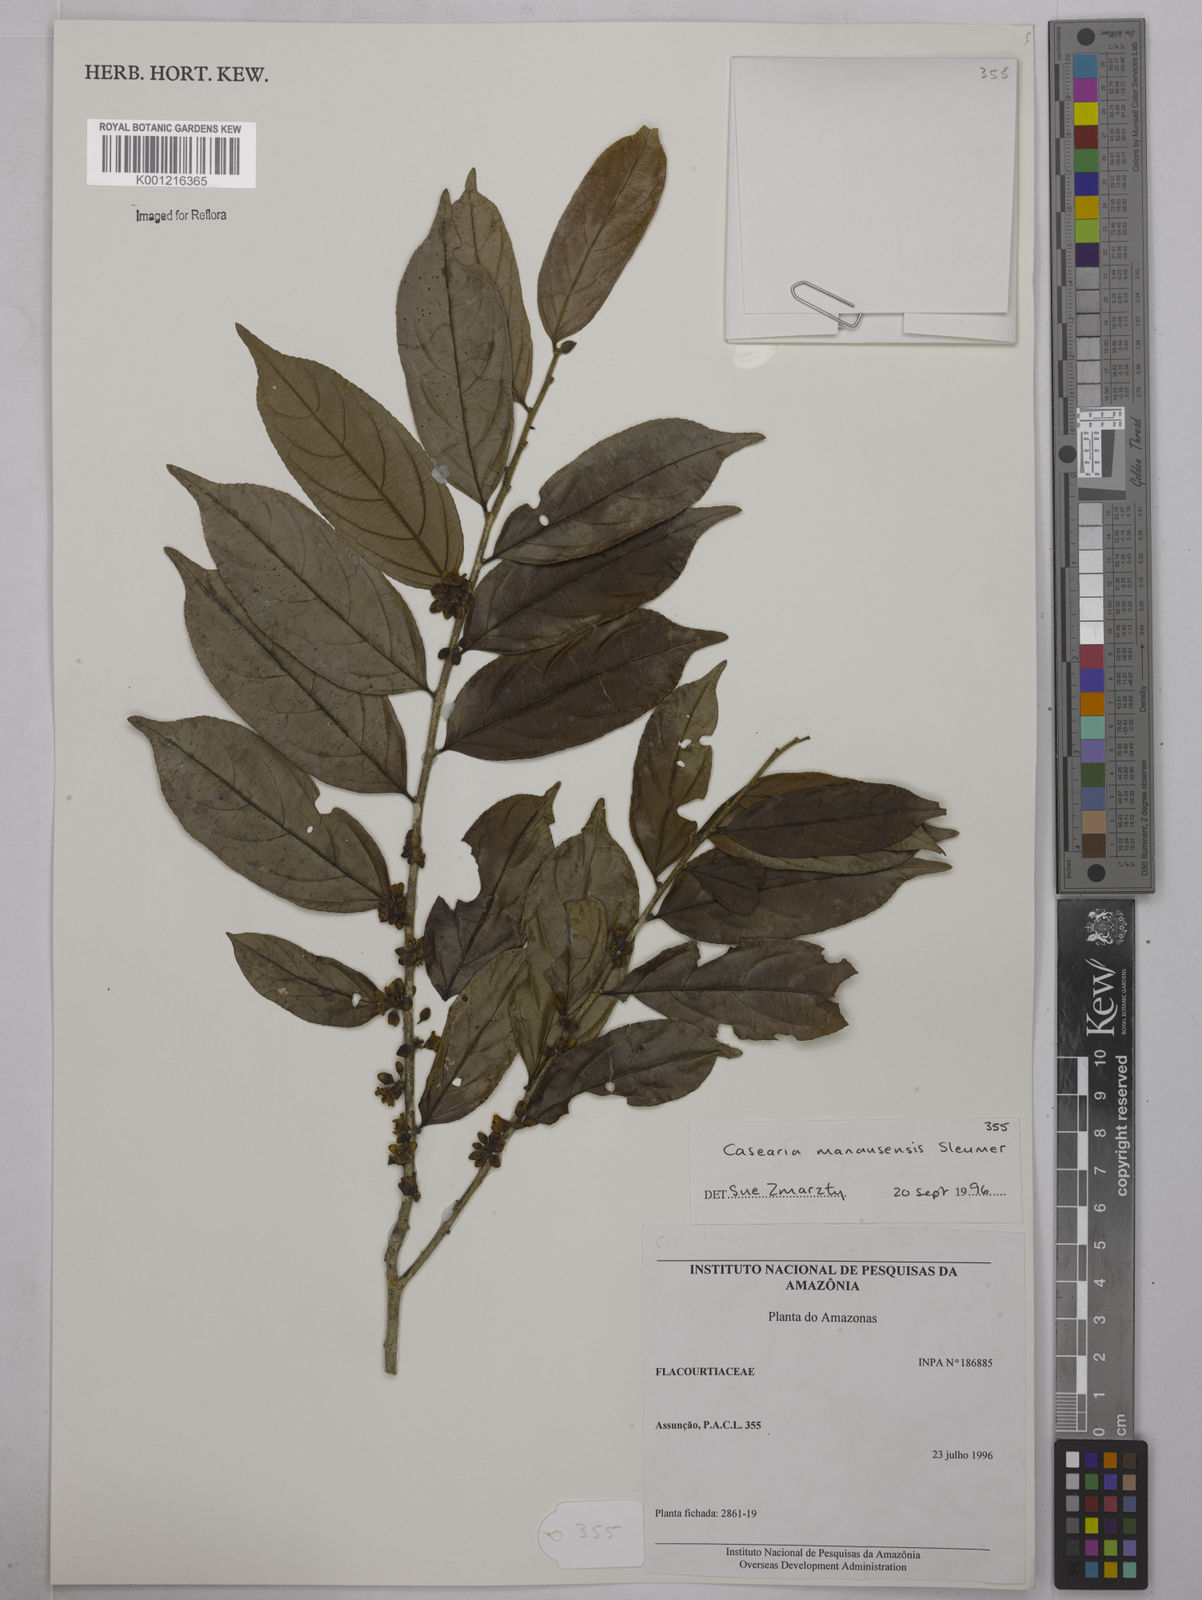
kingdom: Plantae
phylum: Tracheophyta
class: Magnoliopsida
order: Malpighiales
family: Salicaceae
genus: Casearia
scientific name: Casearia manausensis
